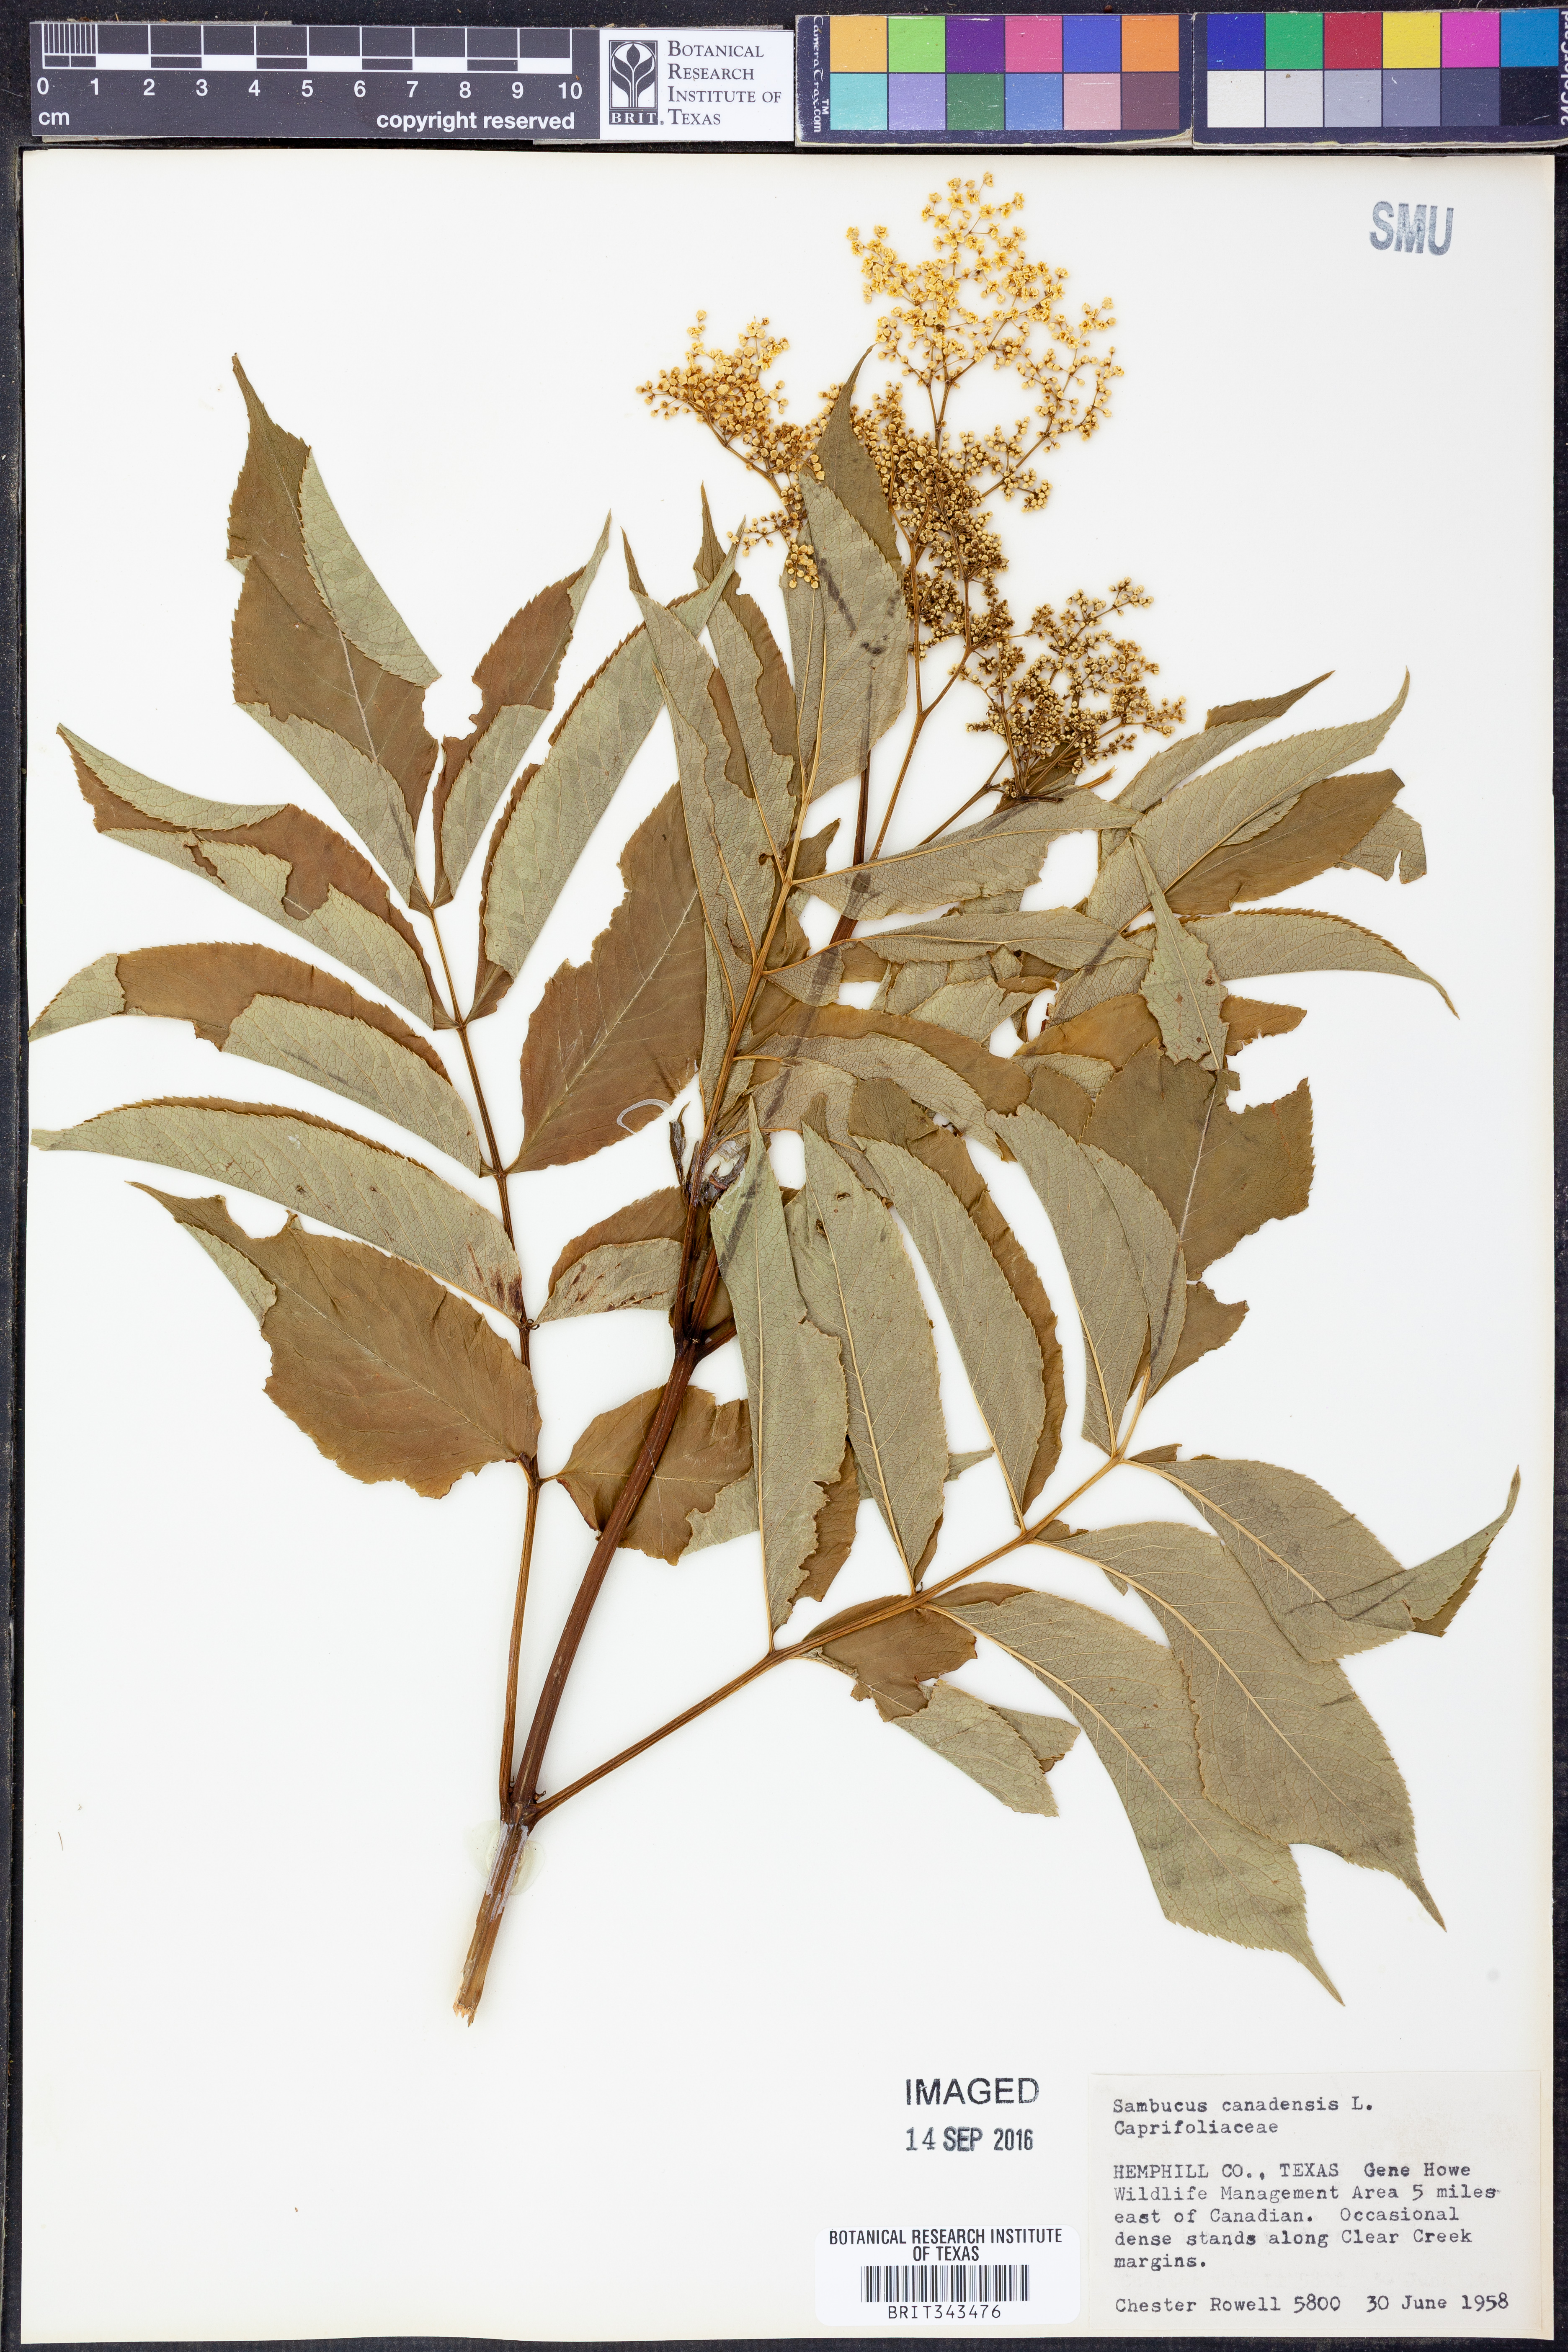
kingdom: Plantae
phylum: Tracheophyta
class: Magnoliopsida
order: Dipsacales
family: Viburnaceae
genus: Sambucus
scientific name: Sambucus canadensis
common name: American elder
